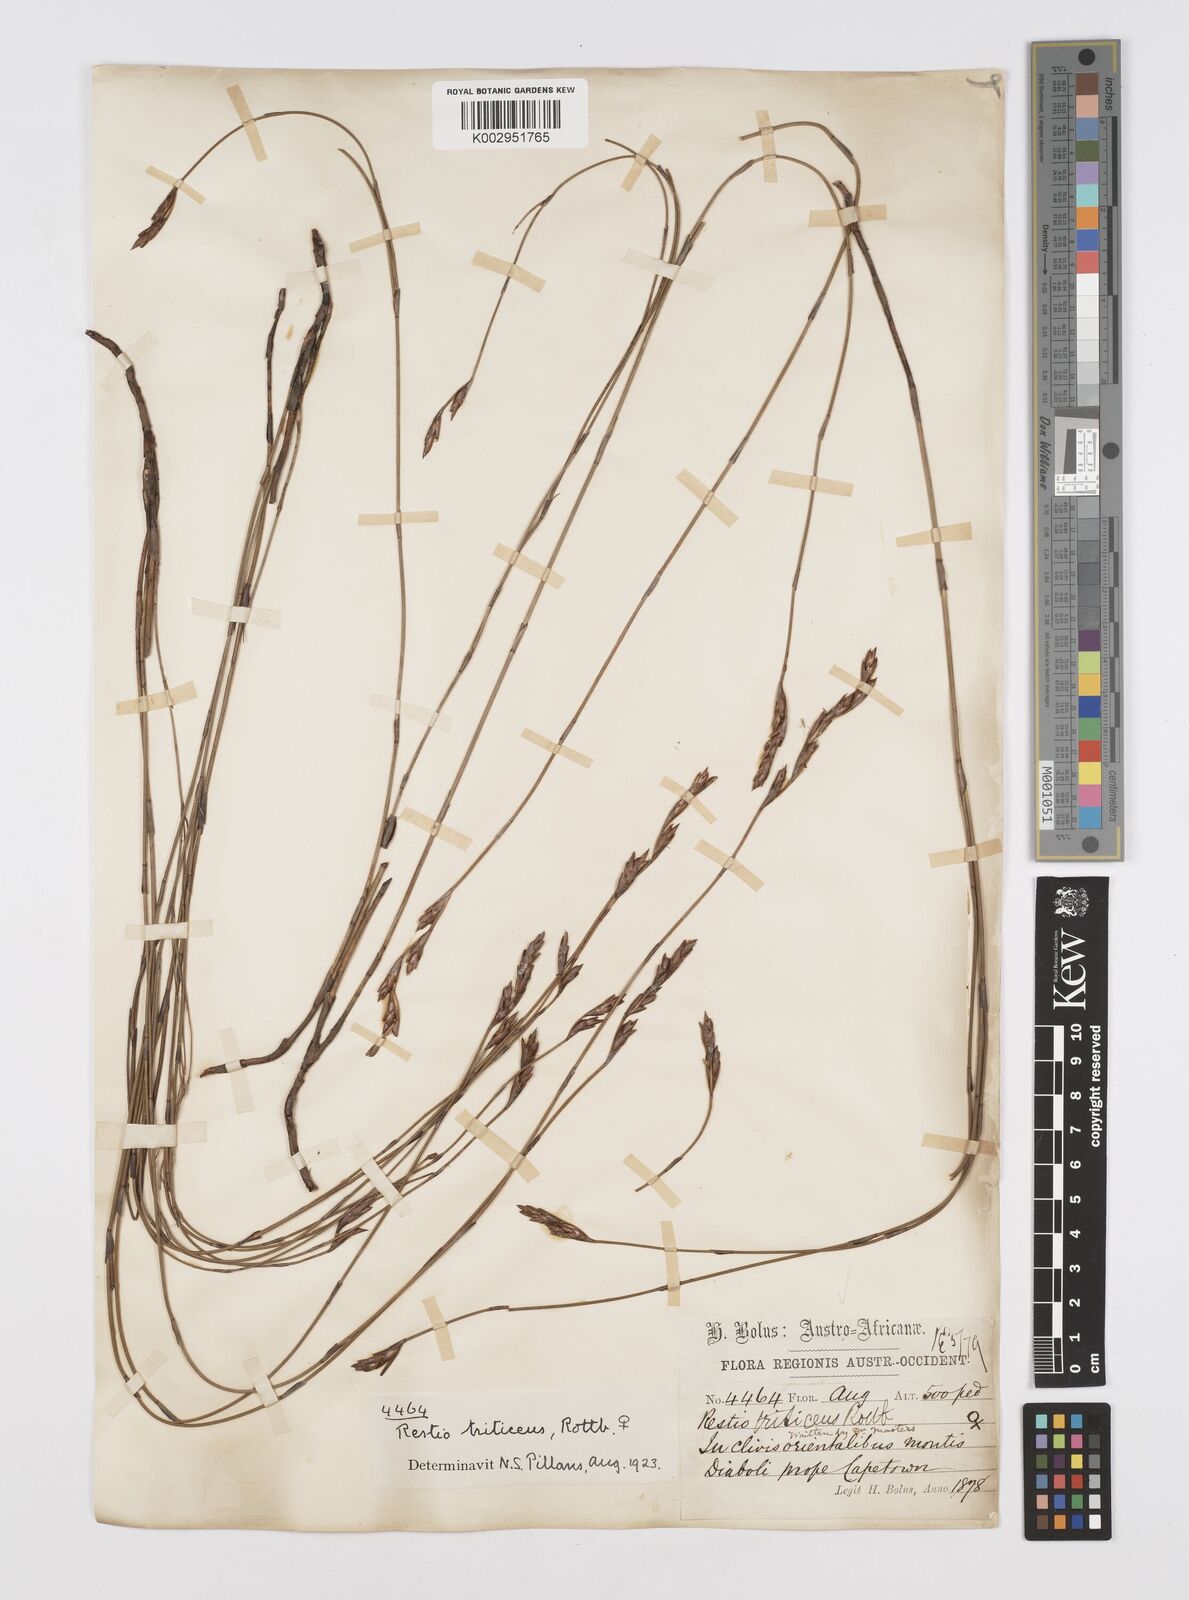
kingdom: Plantae
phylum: Tracheophyta
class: Liliopsida
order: Poales
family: Restionaceae
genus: Restio
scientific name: Restio triticeus
